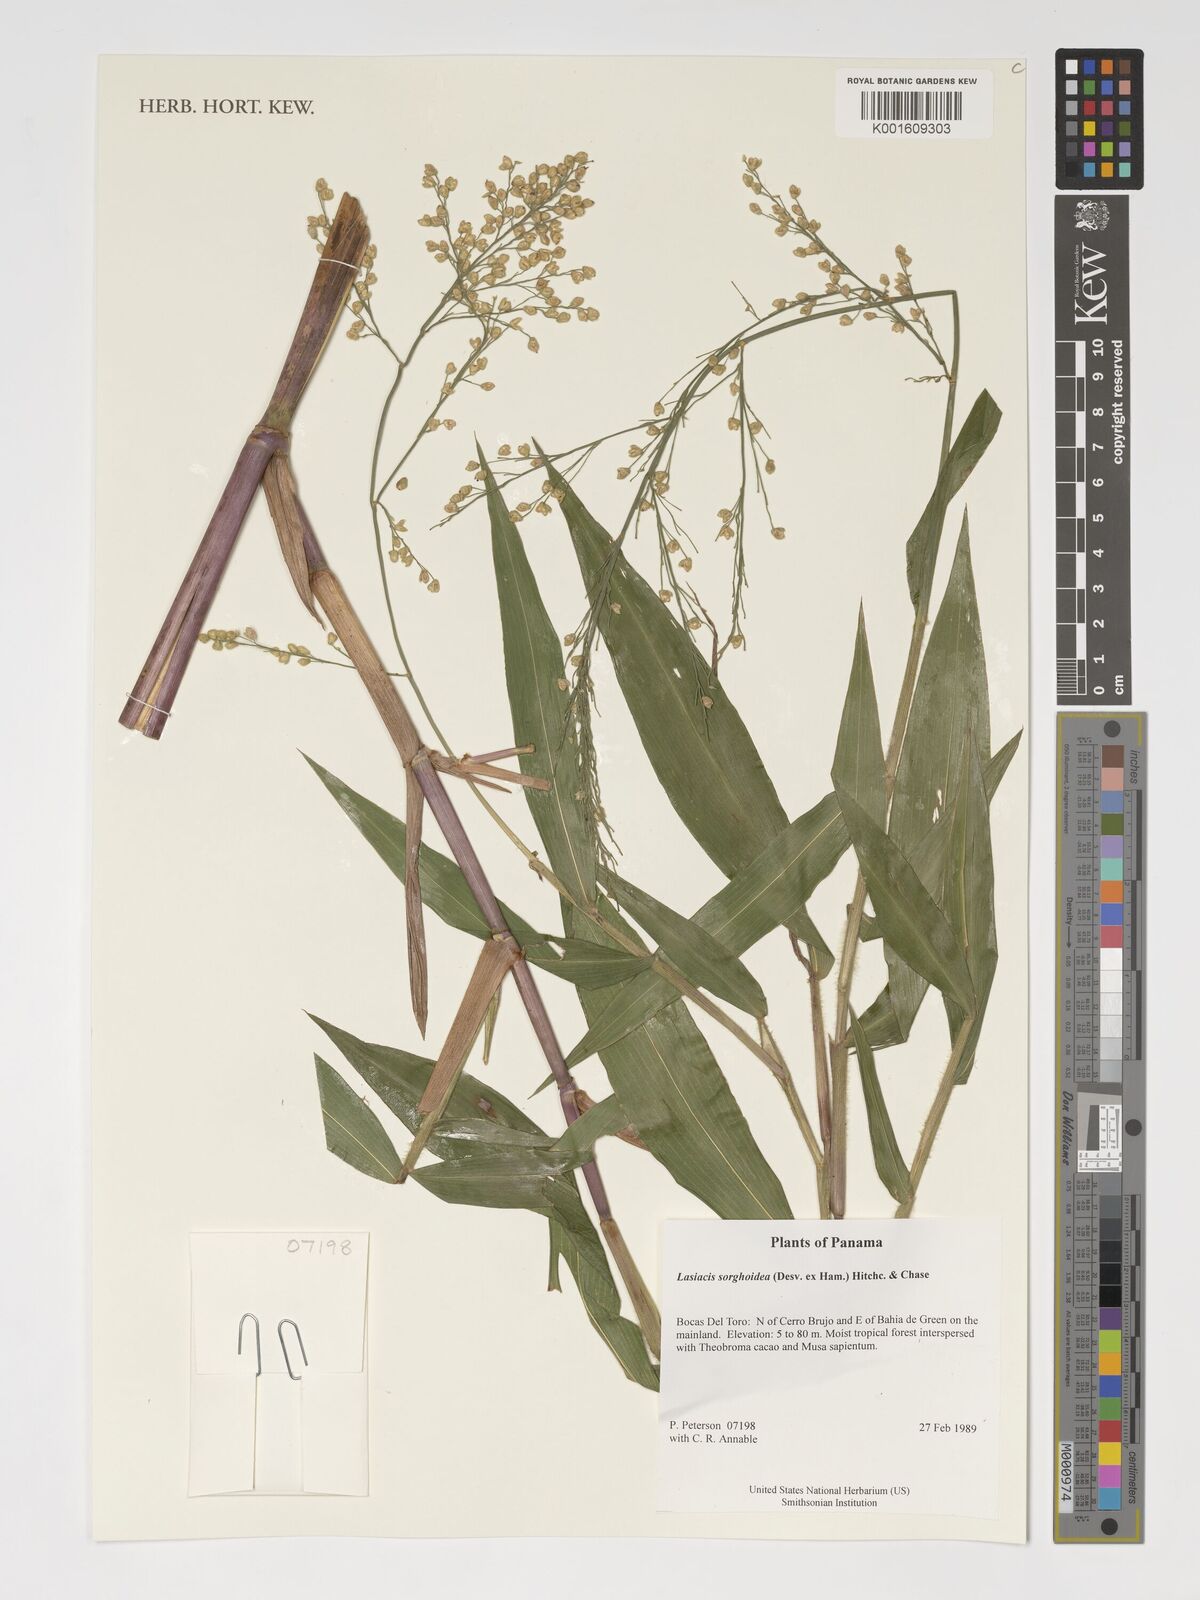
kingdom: Plantae
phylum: Tracheophyta
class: Liliopsida
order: Poales
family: Poaceae
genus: Lasiacis
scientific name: Lasiacis maculata
